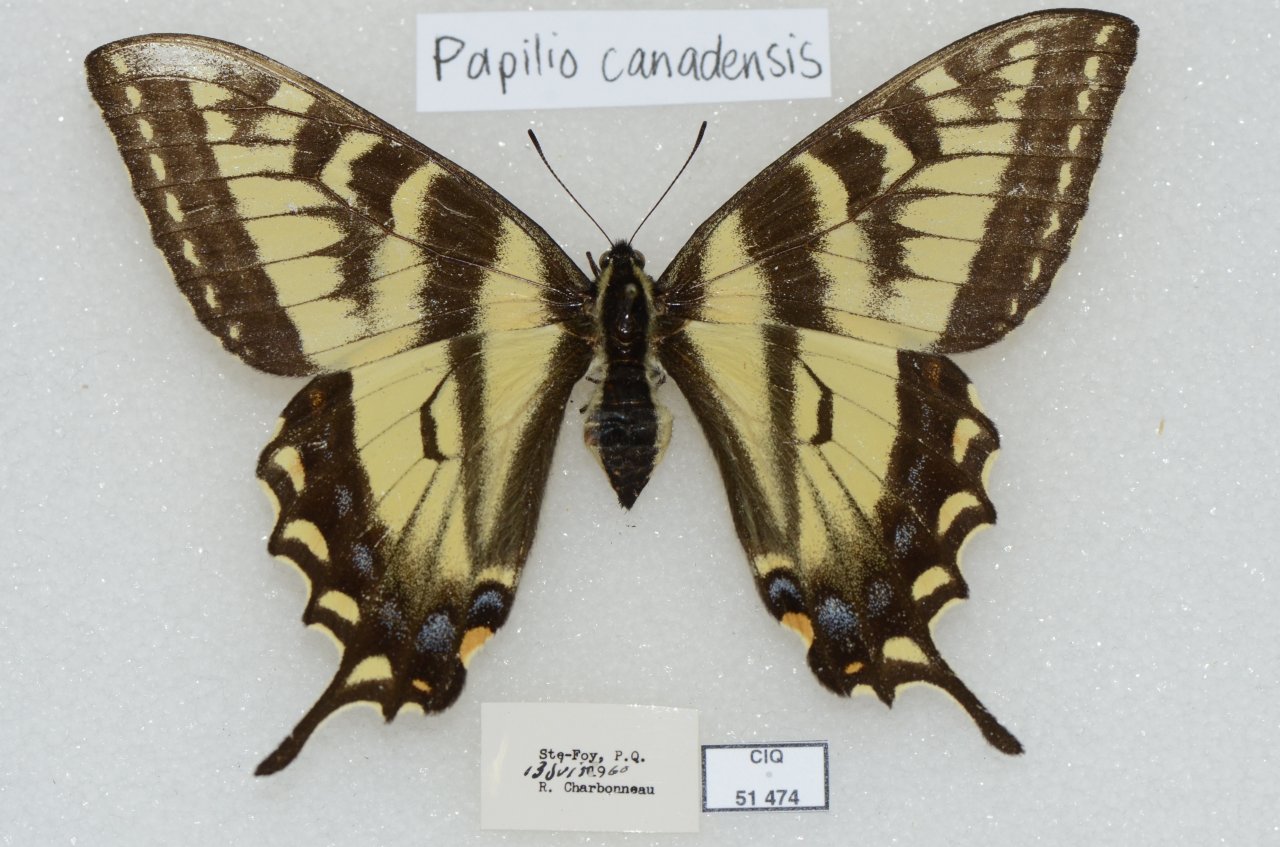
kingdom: Animalia
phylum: Arthropoda
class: Insecta
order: Lepidoptera
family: Papilionidae
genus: Pterourus
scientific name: Pterourus canadensis
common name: Canadian Tiger Swallowtail
